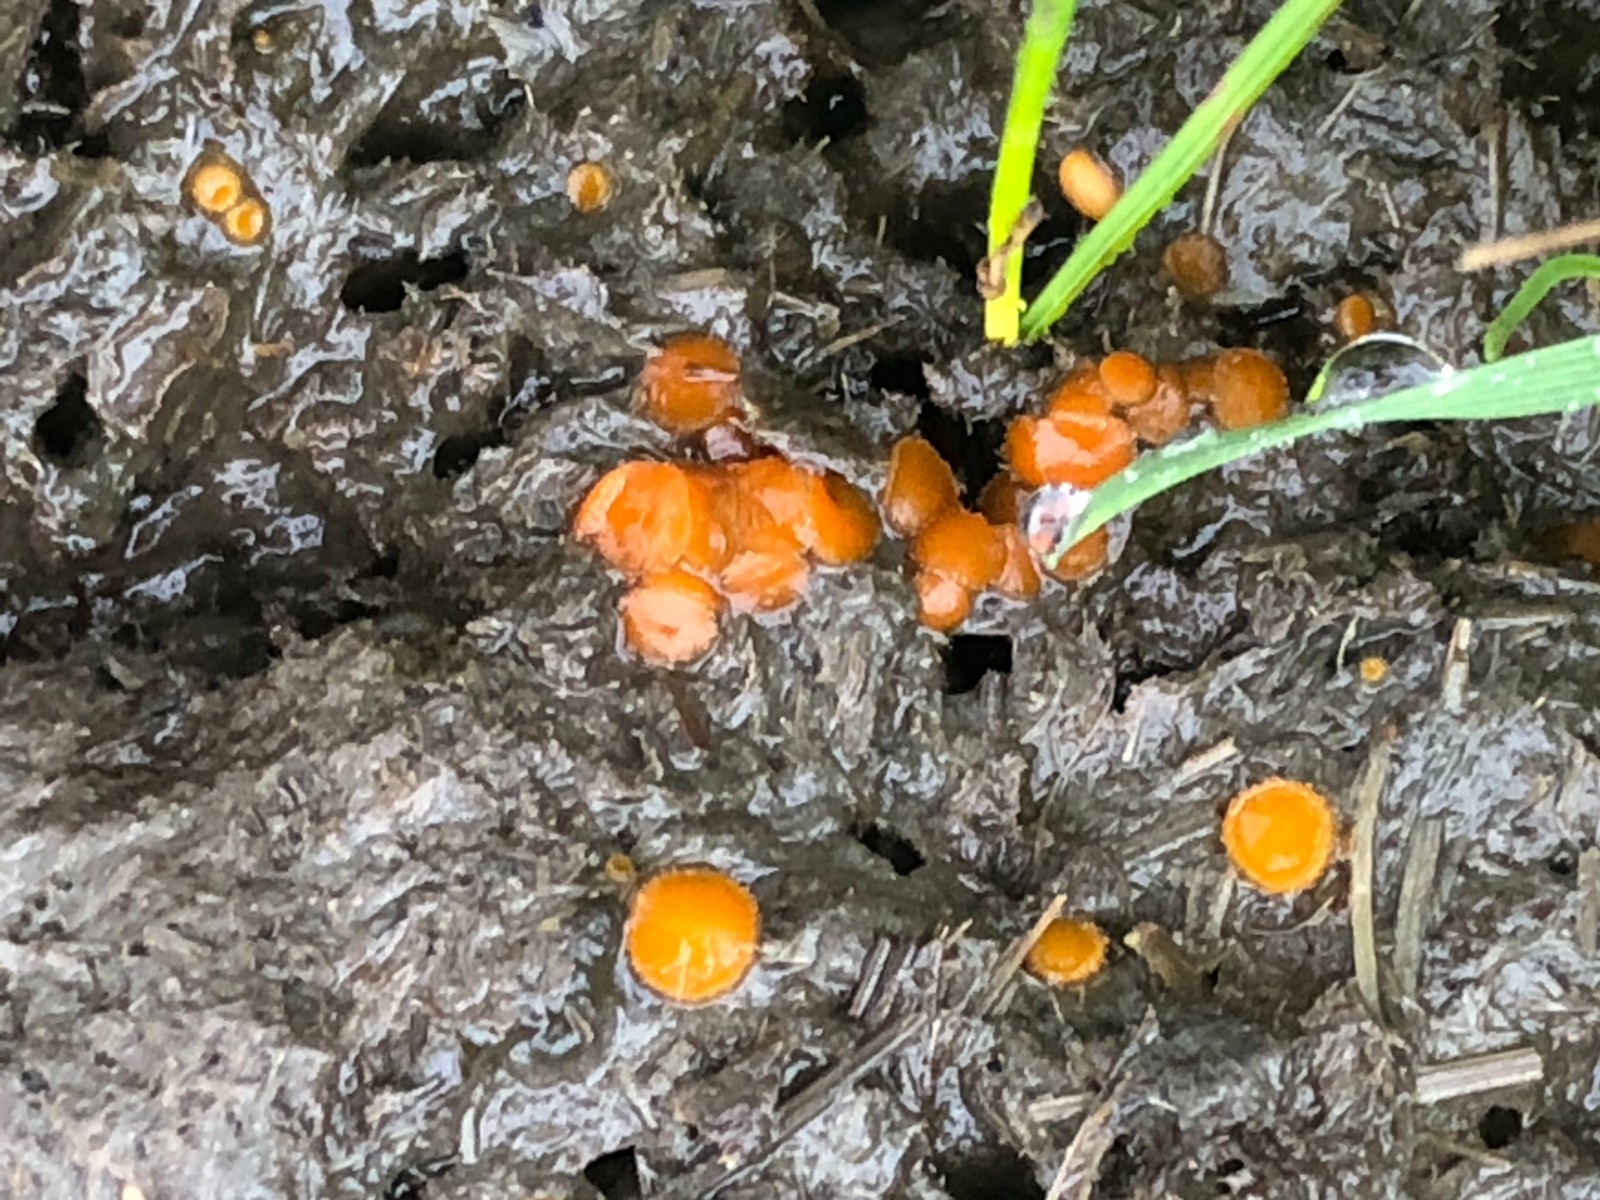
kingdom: Fungi
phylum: Ascomycota
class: Pezizomycetes
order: Pezizales
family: Pyronemataceae
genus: Cheilymenia
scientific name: Cheilymenia granulata
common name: møgbæger
